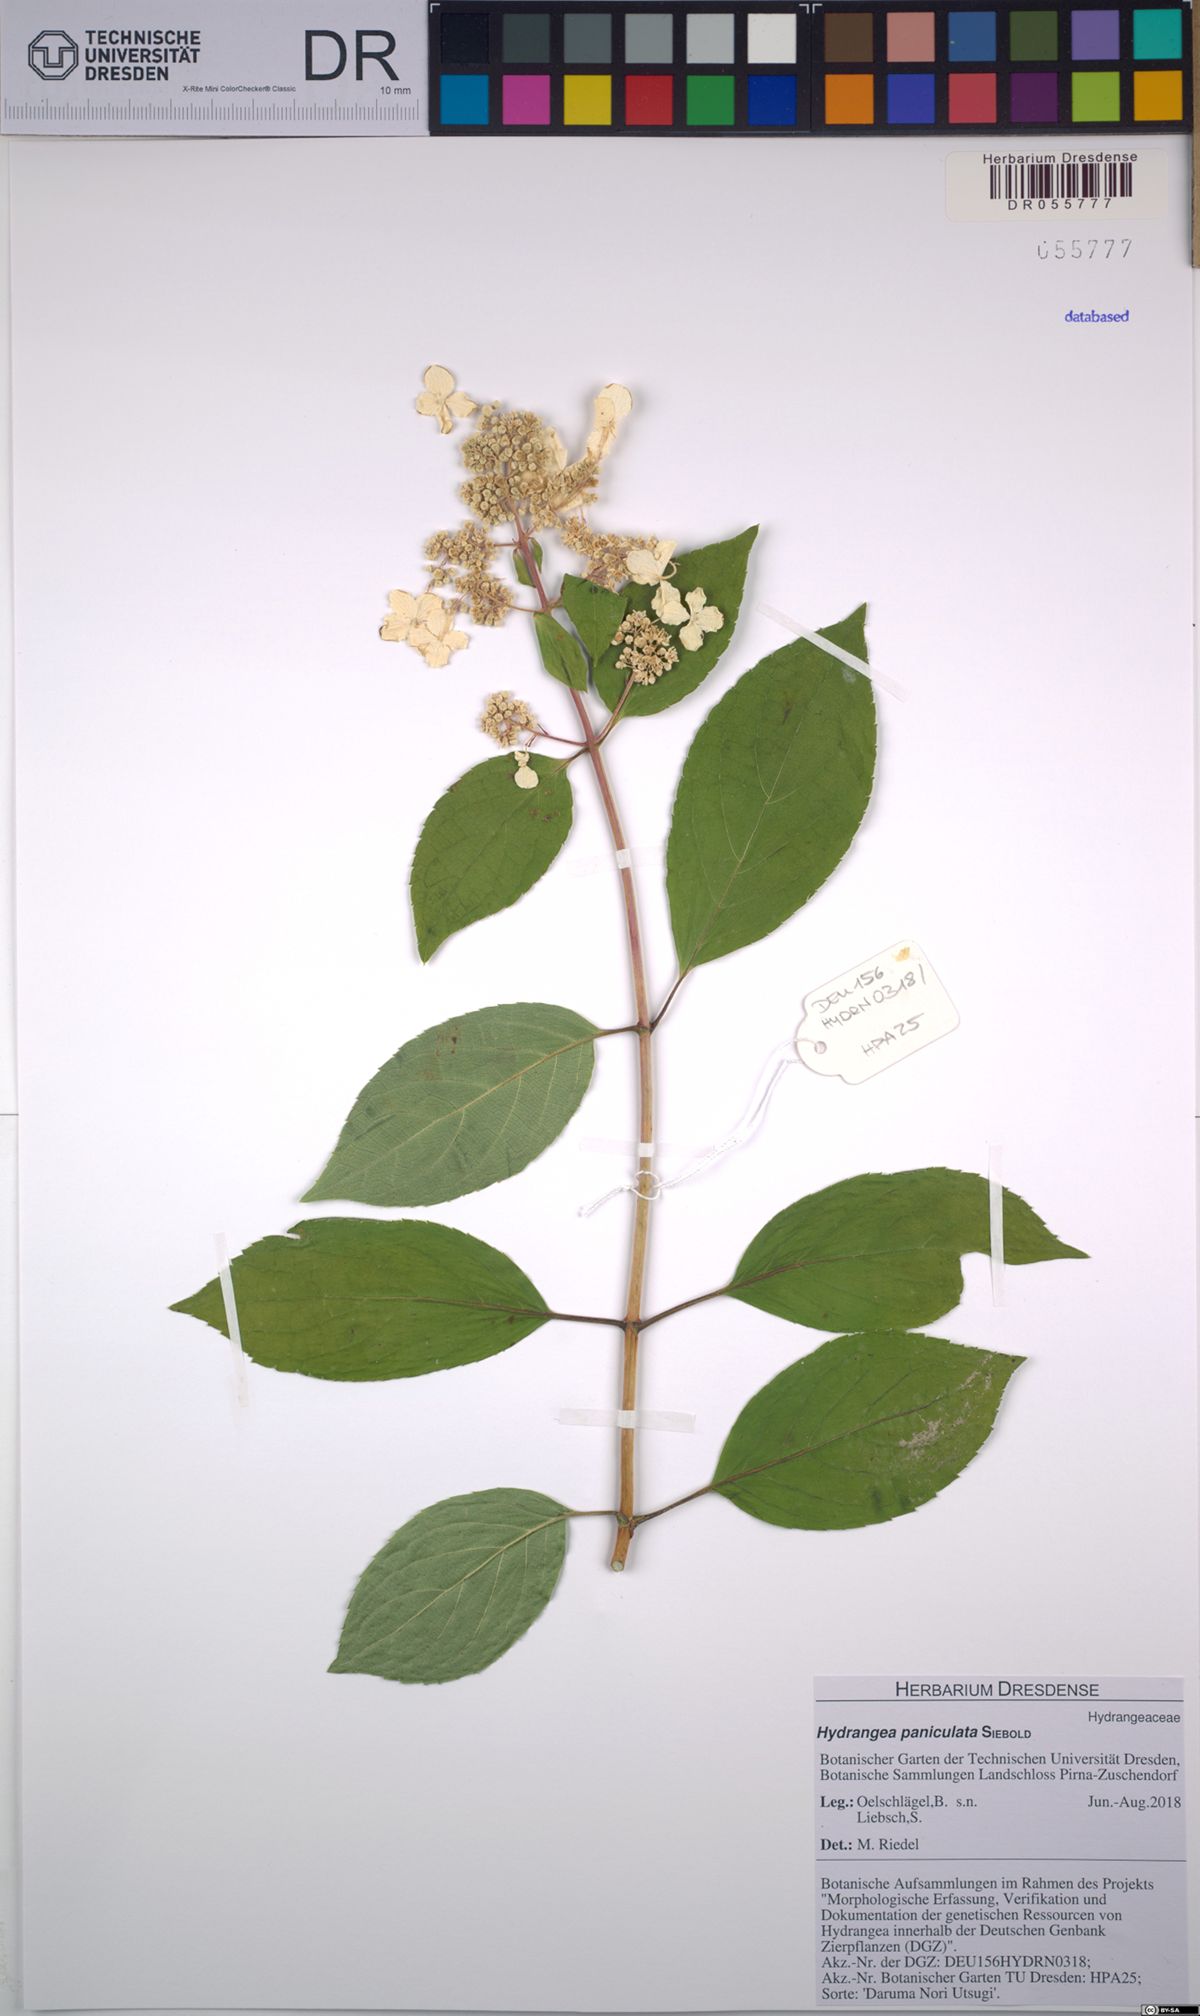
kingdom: Plantae
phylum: Tracheophyta
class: Magnoliopsida
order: Cornales
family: Hydrangeaceae
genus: Hydrangea
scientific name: Hydrangea paniculata
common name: Panicled hydrangea
